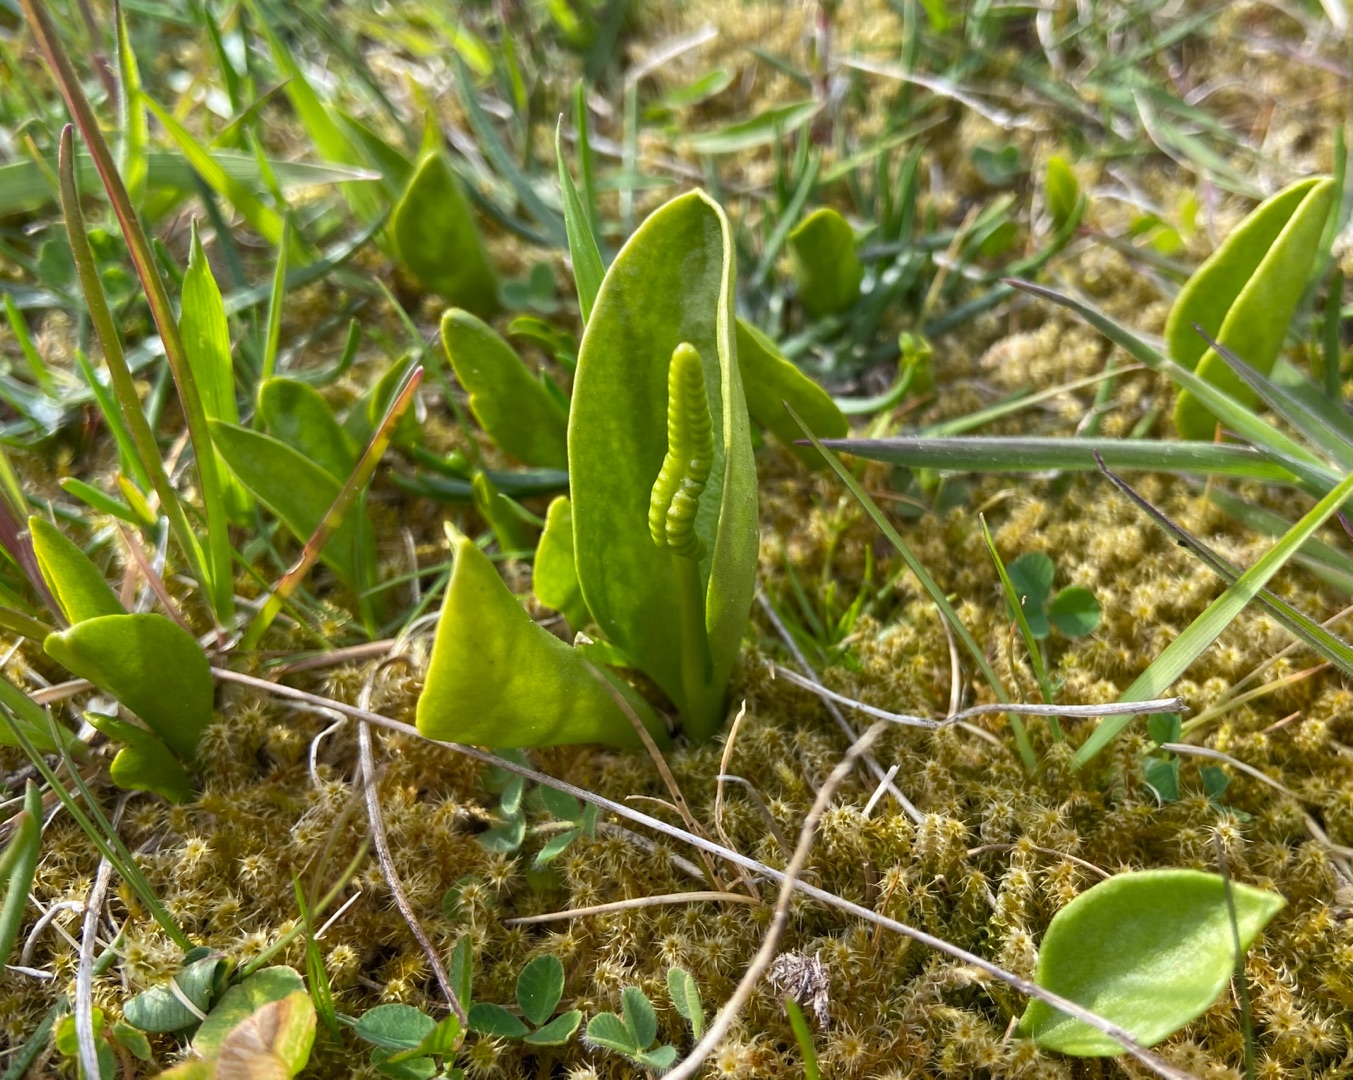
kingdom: Plantae
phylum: Tracheophyta
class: Polypodiopsida
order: Ophioglossales
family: Ophioglossaceae
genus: Ophioglossum
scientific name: Ophioglossum vulgatum
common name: Slangetunge
